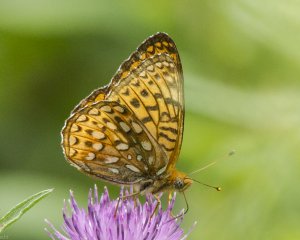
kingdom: Animalia
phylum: Arthropoda
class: Insecta
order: Lepidoptera
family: Nymphalidae
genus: Speyeria
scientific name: Speyeria atlantis
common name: Atlantis Fritillary
